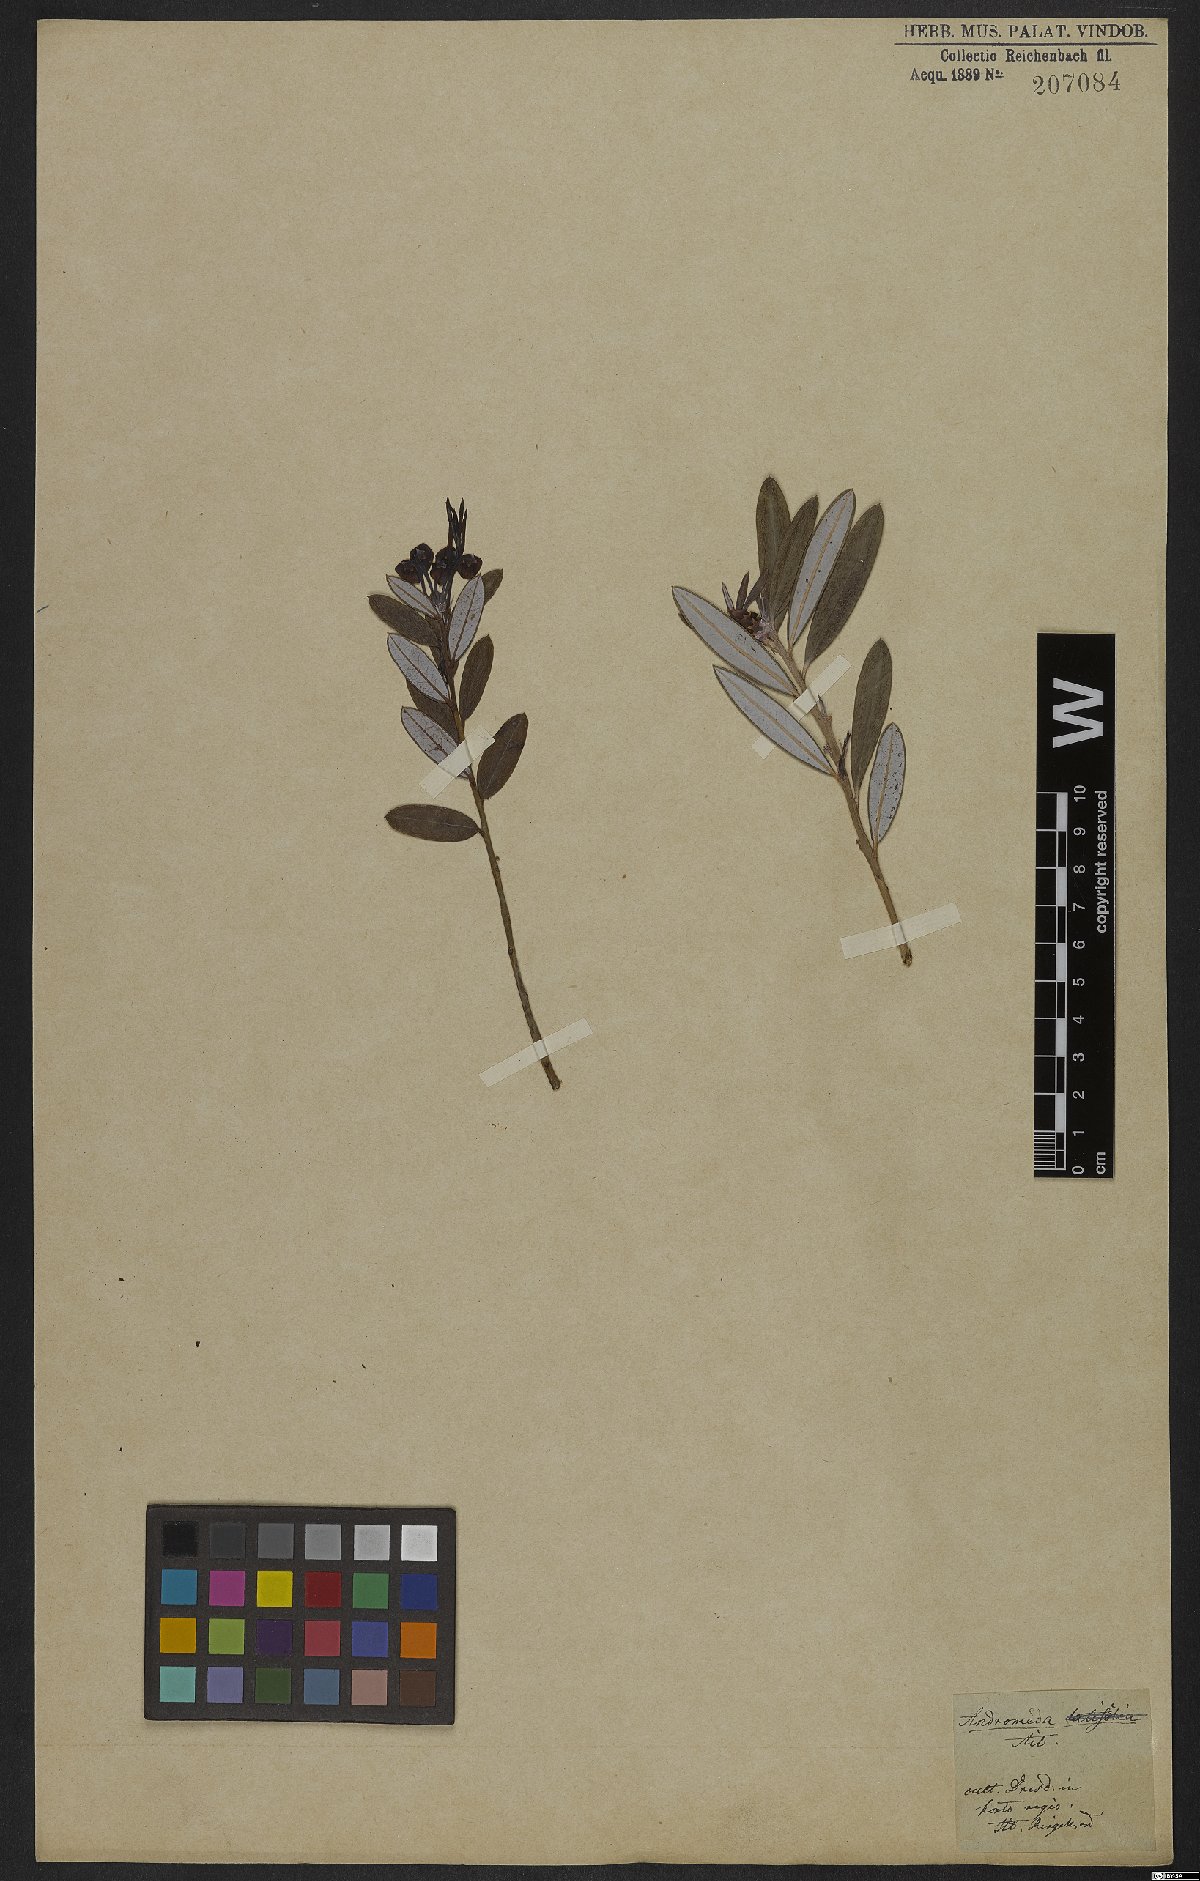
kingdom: Plantae
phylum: Tracheophyta
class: Magnoliopsida
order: Ericales
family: Ericaceae
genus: Agarista
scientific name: Agarista oleifolia
